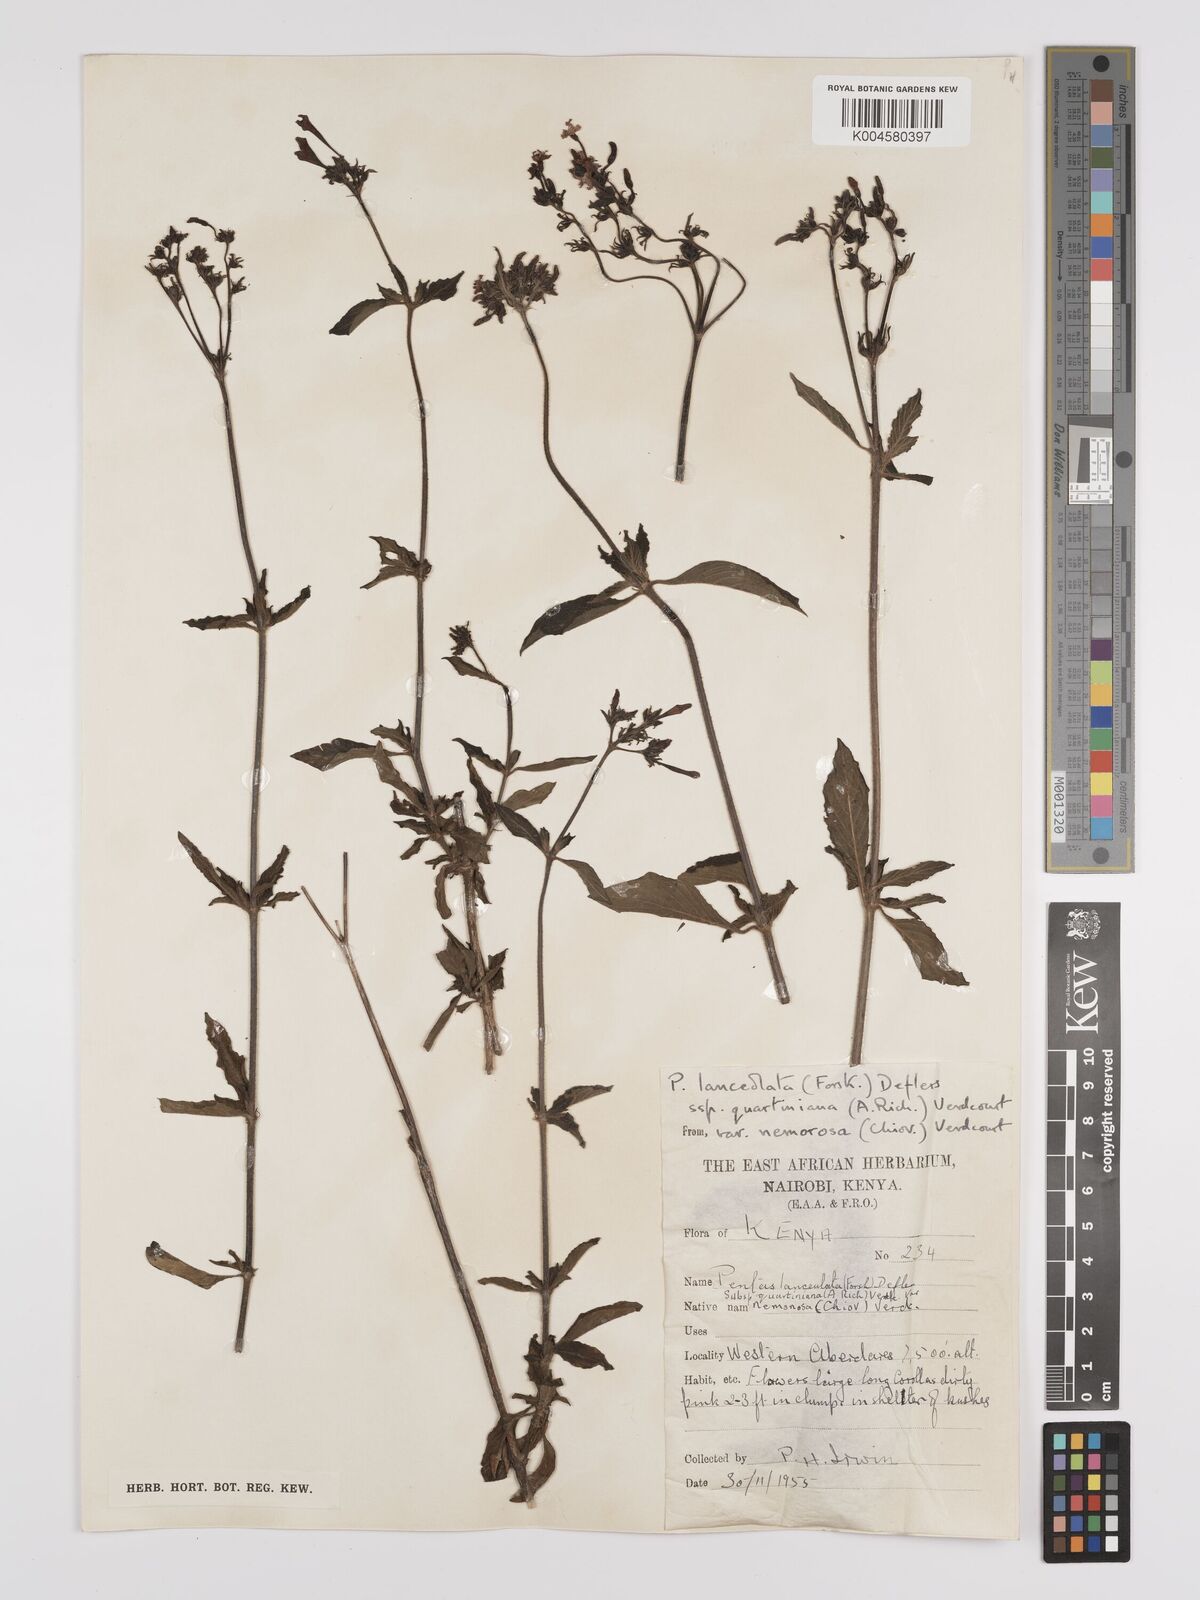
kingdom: Plantae
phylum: Tracheophyta
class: Magnoliopsida
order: Gentianales
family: Rubiaceae
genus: Pentas
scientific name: Pentas lanceolata
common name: Egyptian starcluster
